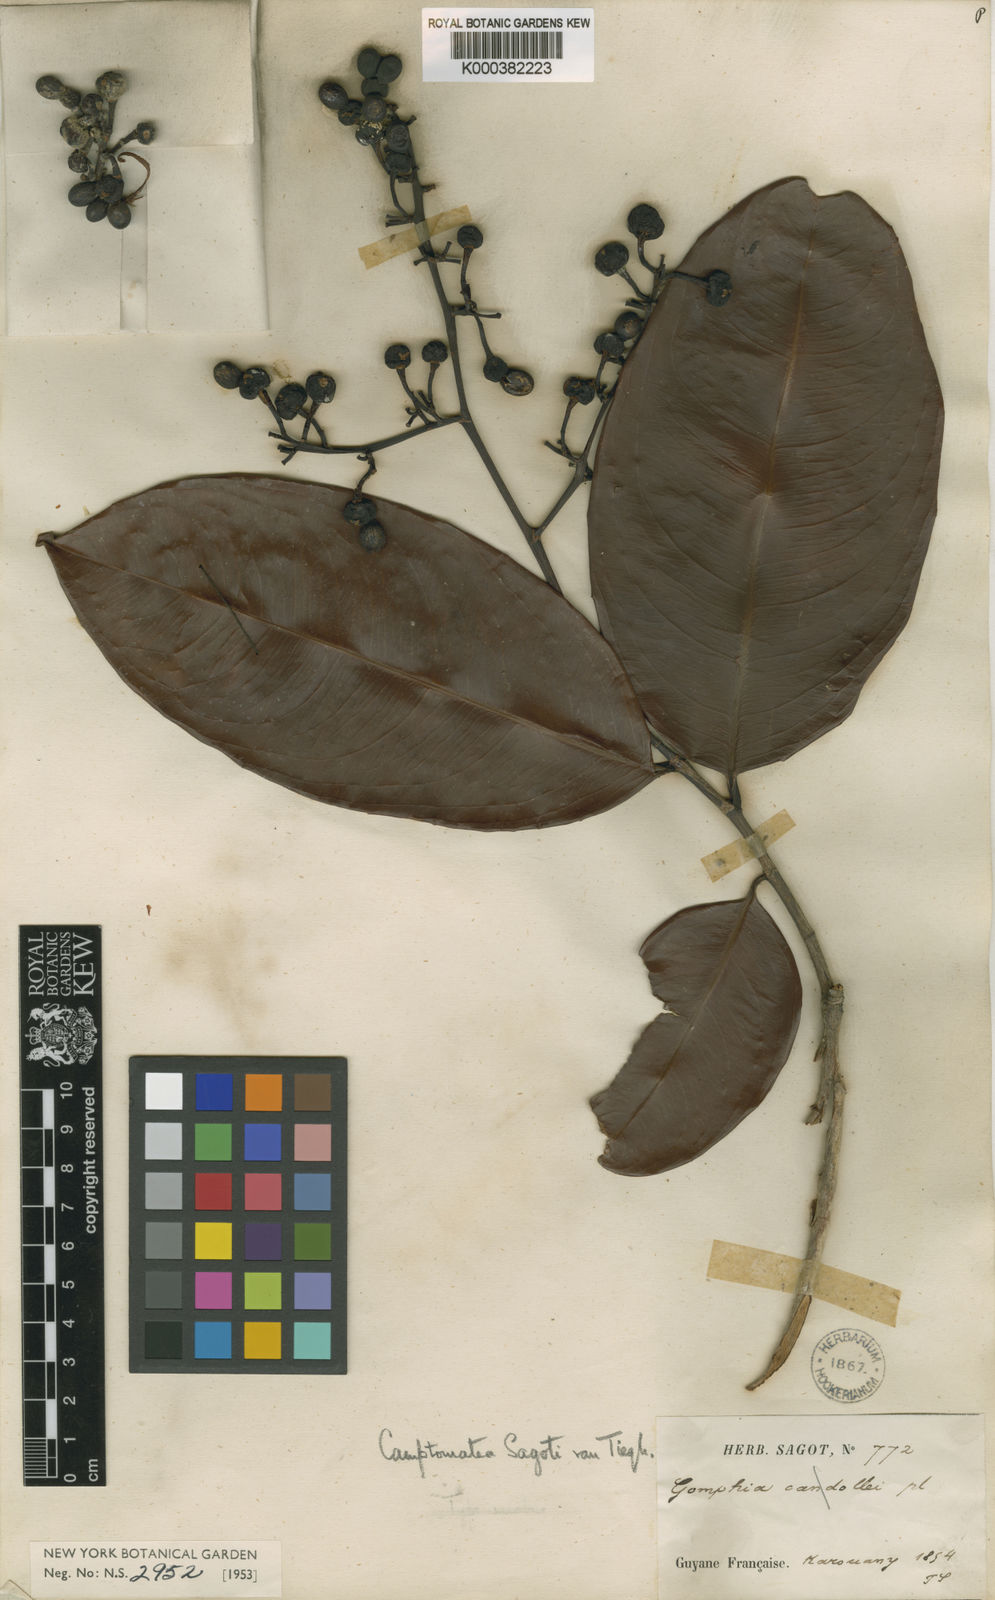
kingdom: Plantae
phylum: Tracheophyta
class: Magnoliopsida
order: Malpighiales
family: Ochnaceae
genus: Ouratea
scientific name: Ouratea
